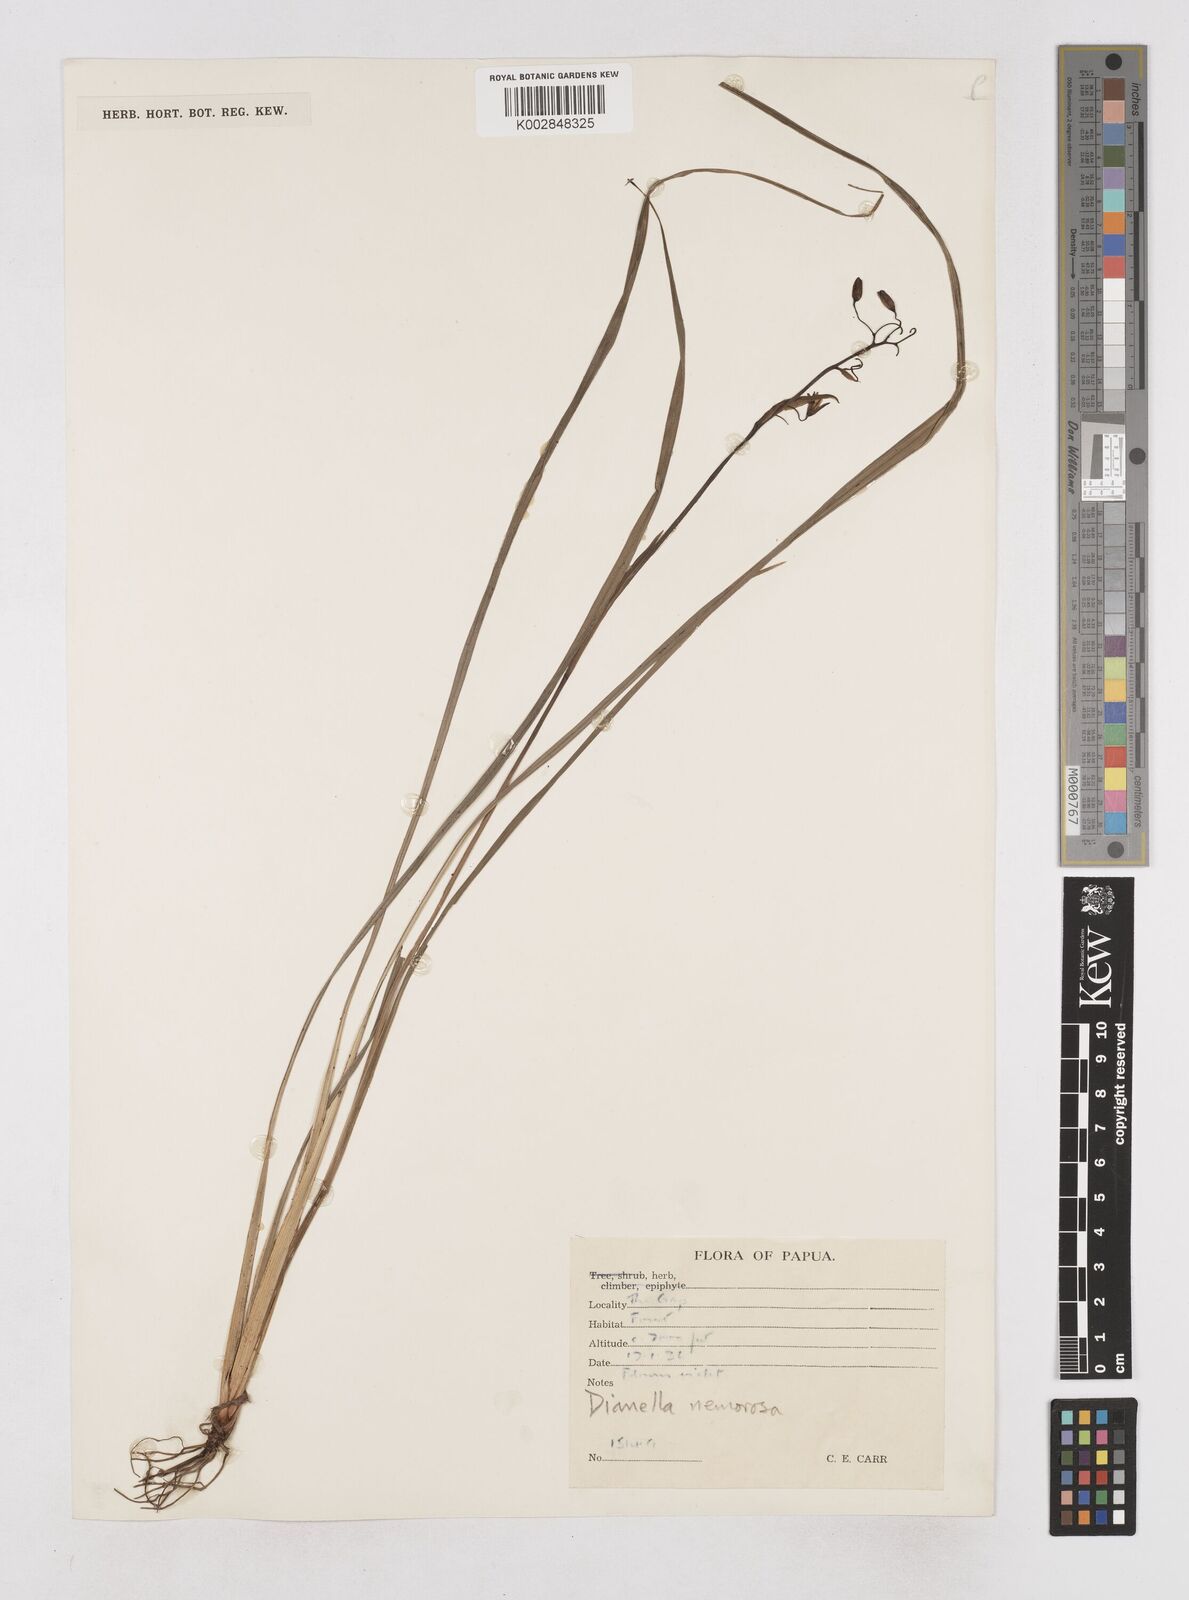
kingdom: Plantae
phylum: Tracheophyta
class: Liliopsida
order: Asparagales
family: Asphodelaceae
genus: Dianella
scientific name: Dianella ensifolia
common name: New zealand lilyplant
